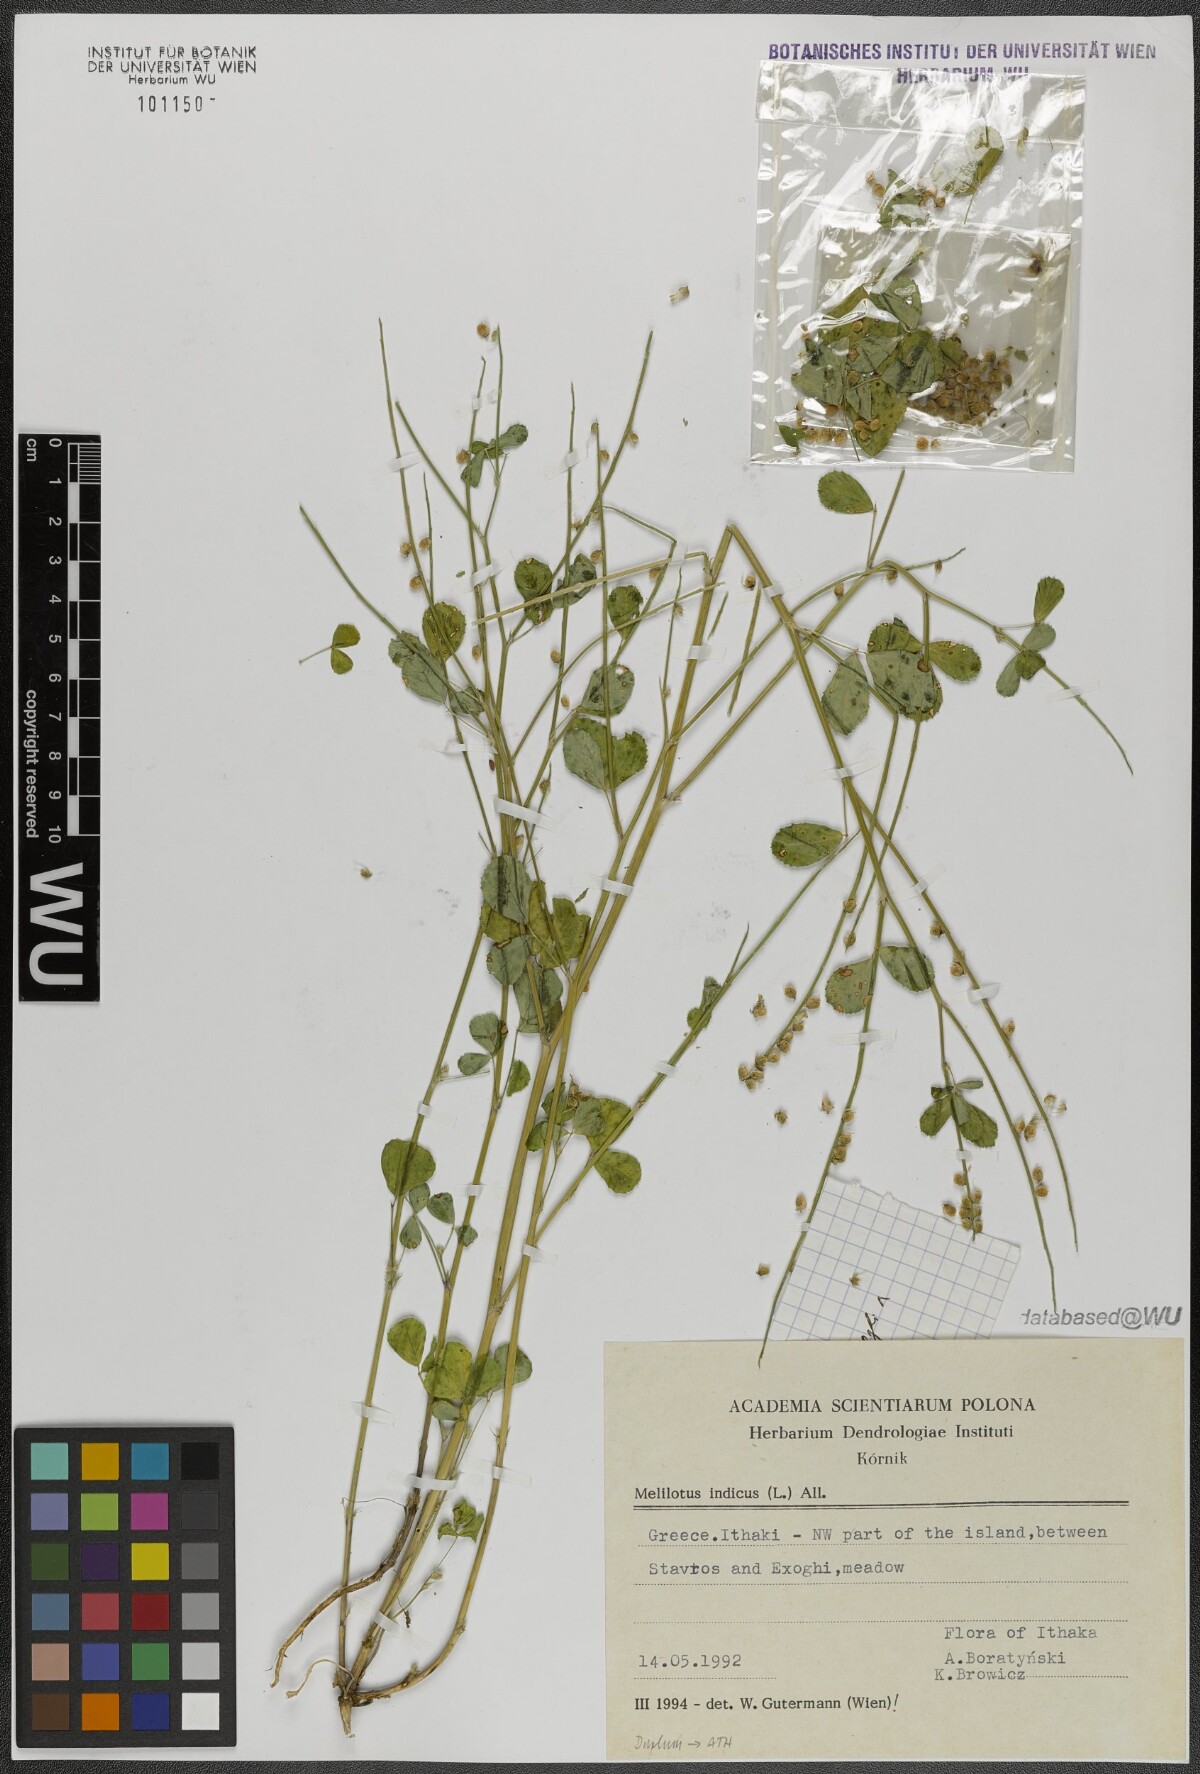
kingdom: Plantae
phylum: Tracheophyta
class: Magnoliopsida
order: Fabales
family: Fabaceae
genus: Melilotus
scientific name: Melilotus indicus
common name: Small melilot
